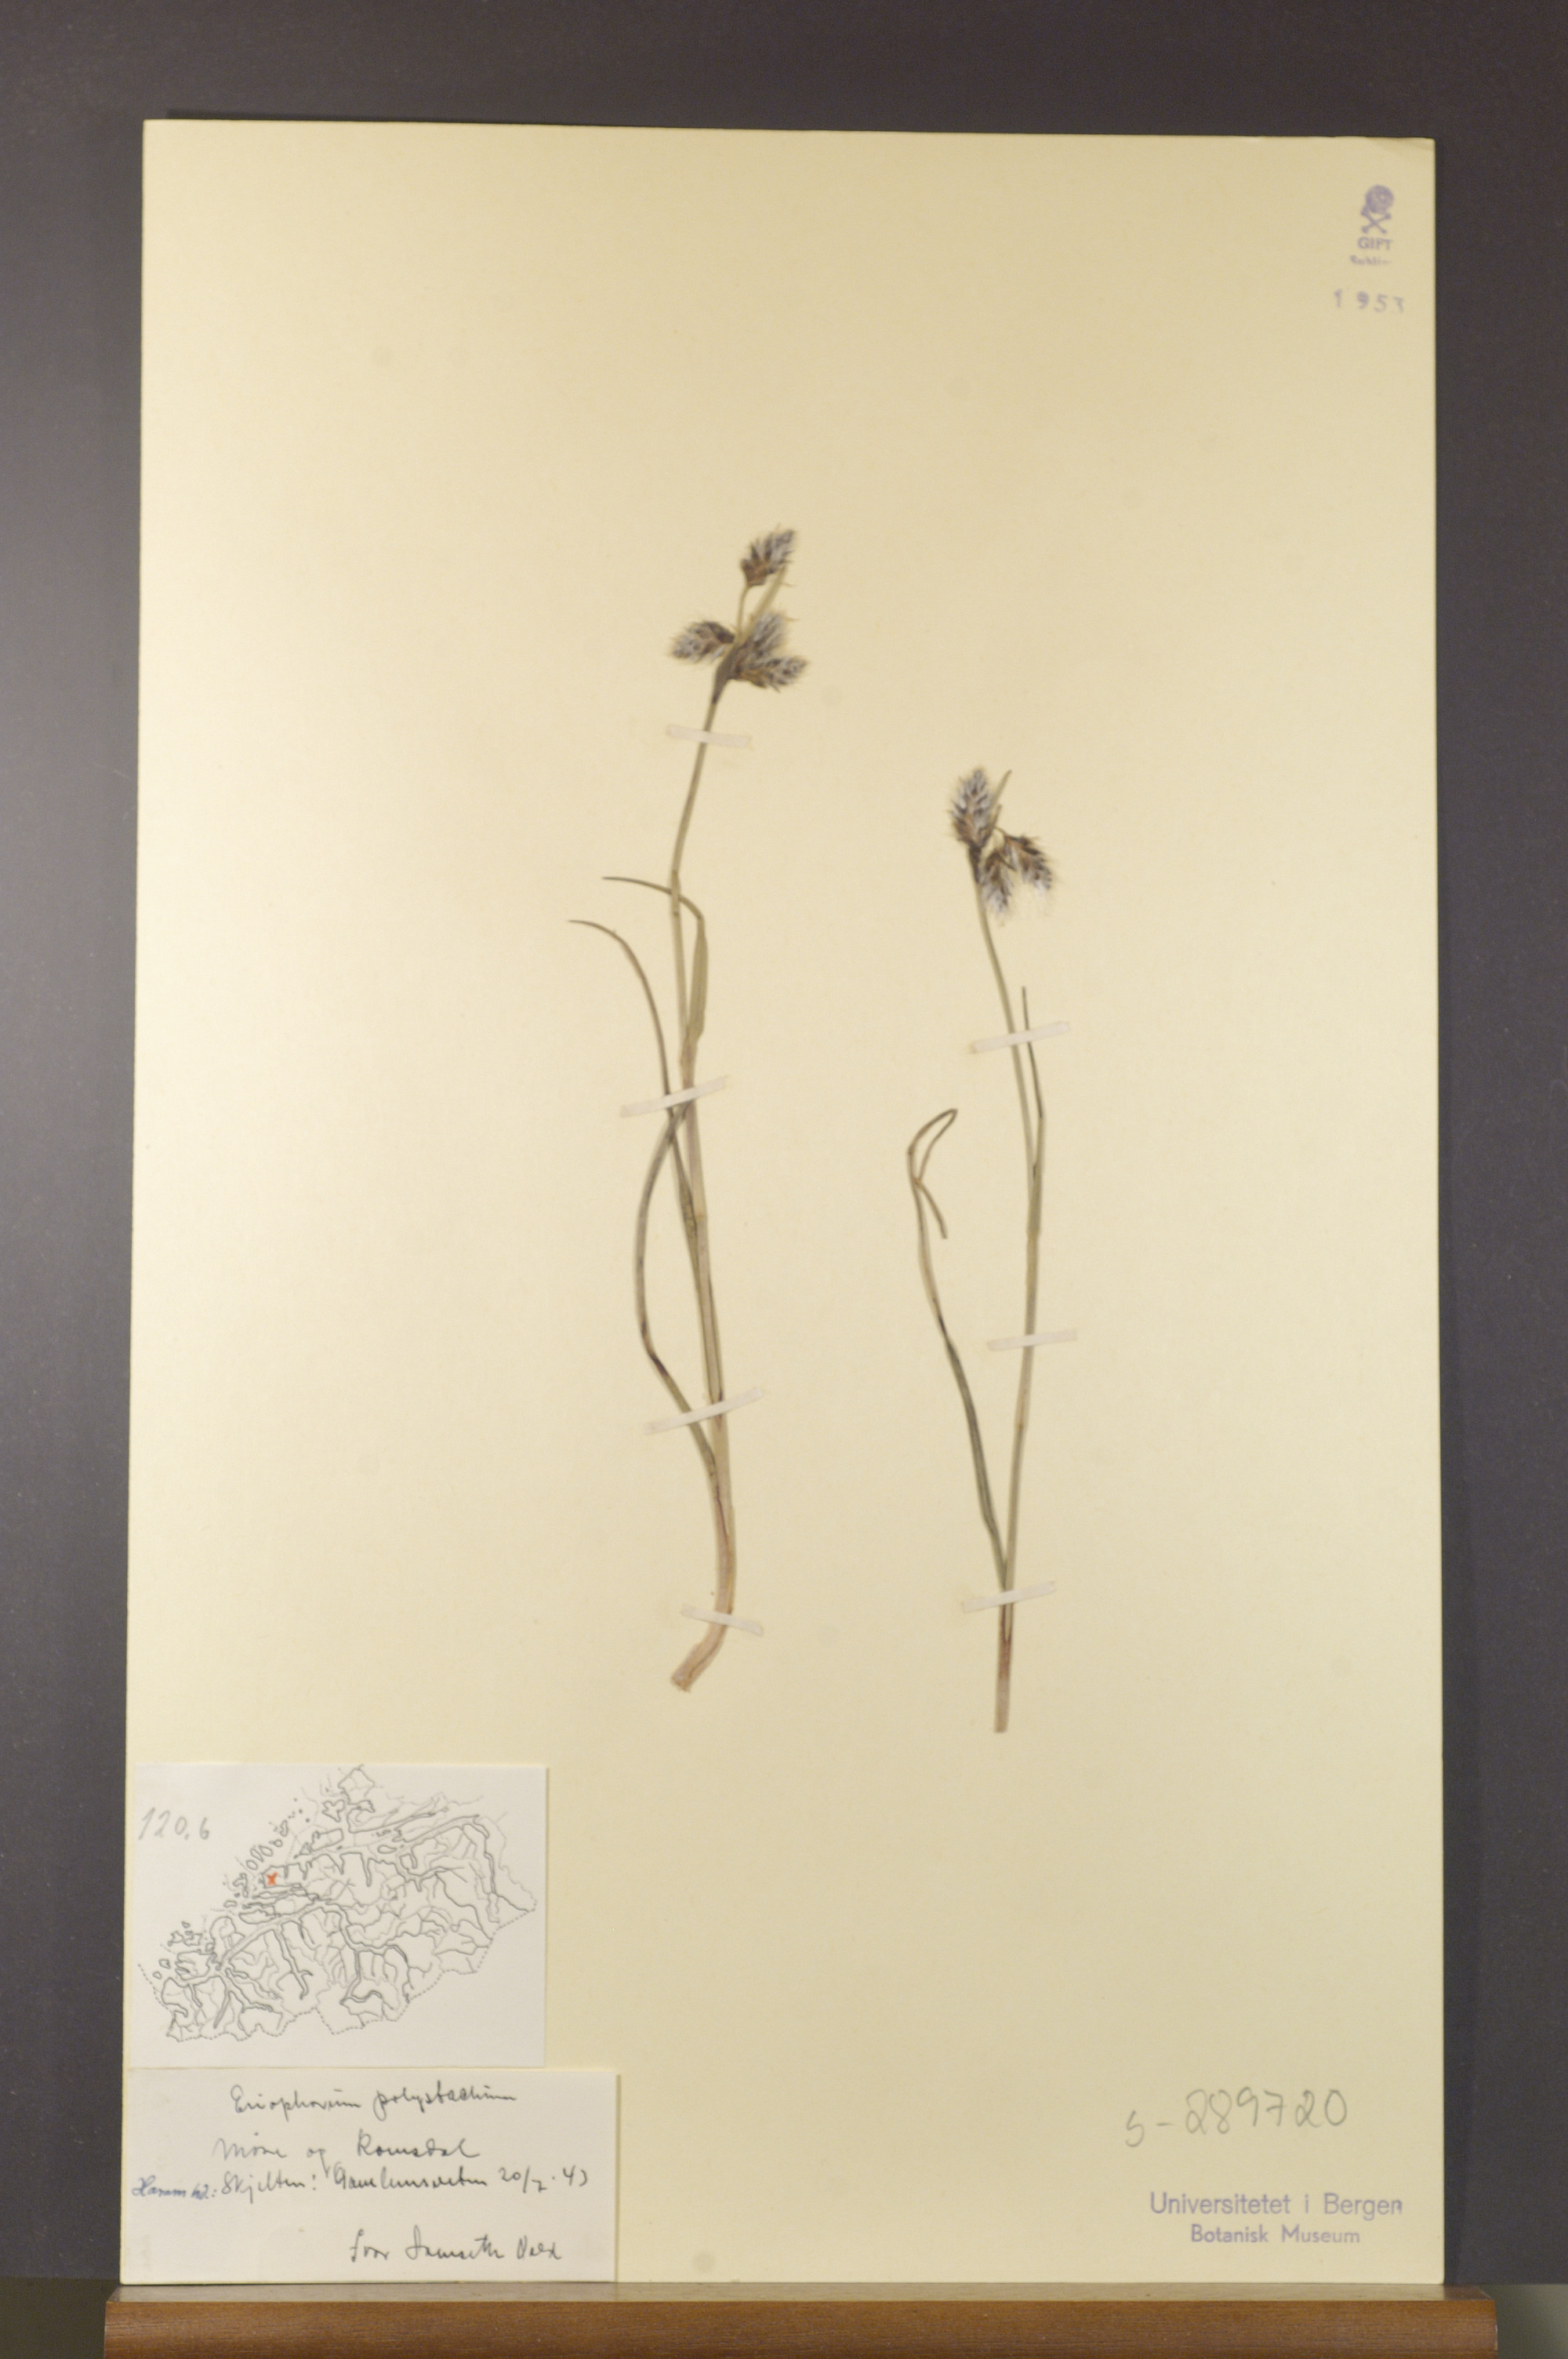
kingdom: Plantae
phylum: Tracheophyta
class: Liliopsida
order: Poales
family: Cyperaceae
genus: Eriophorum
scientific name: Eriophorum angustifolium
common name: Common cottongrass
